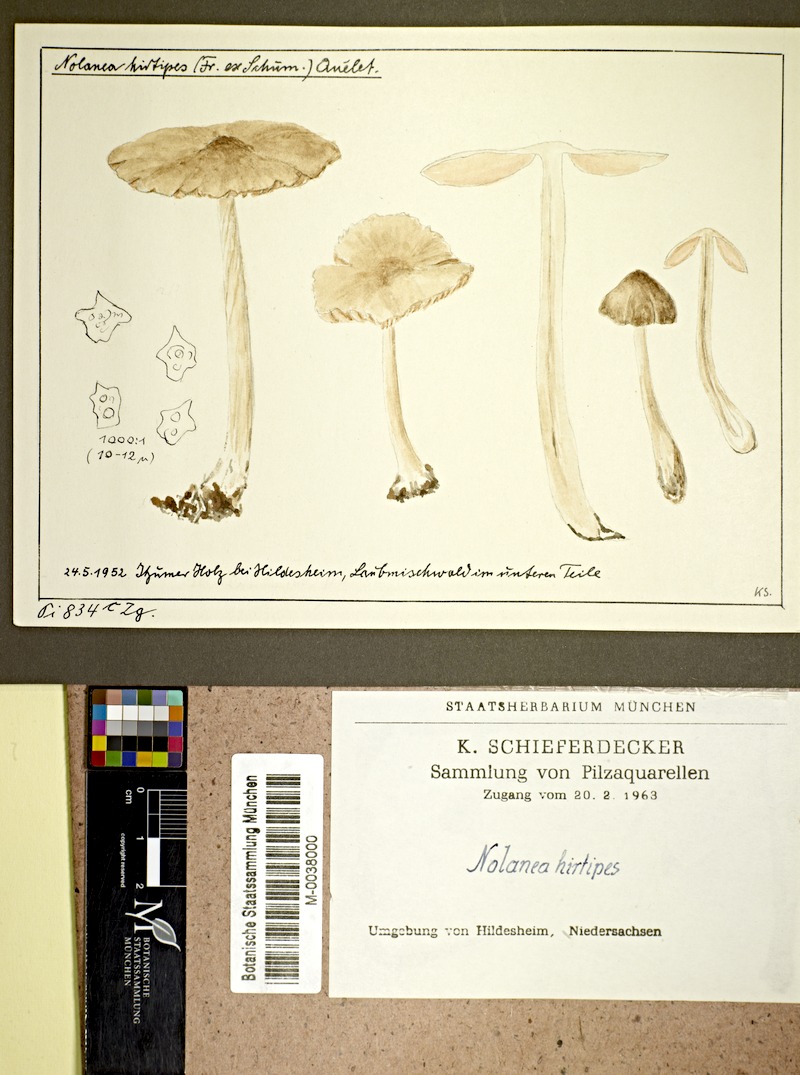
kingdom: Fungi
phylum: Basidiomycota
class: Agaricomycetes
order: Agaricales
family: Entolomataceae
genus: Entoloma
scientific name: Entoloma hirtipes
